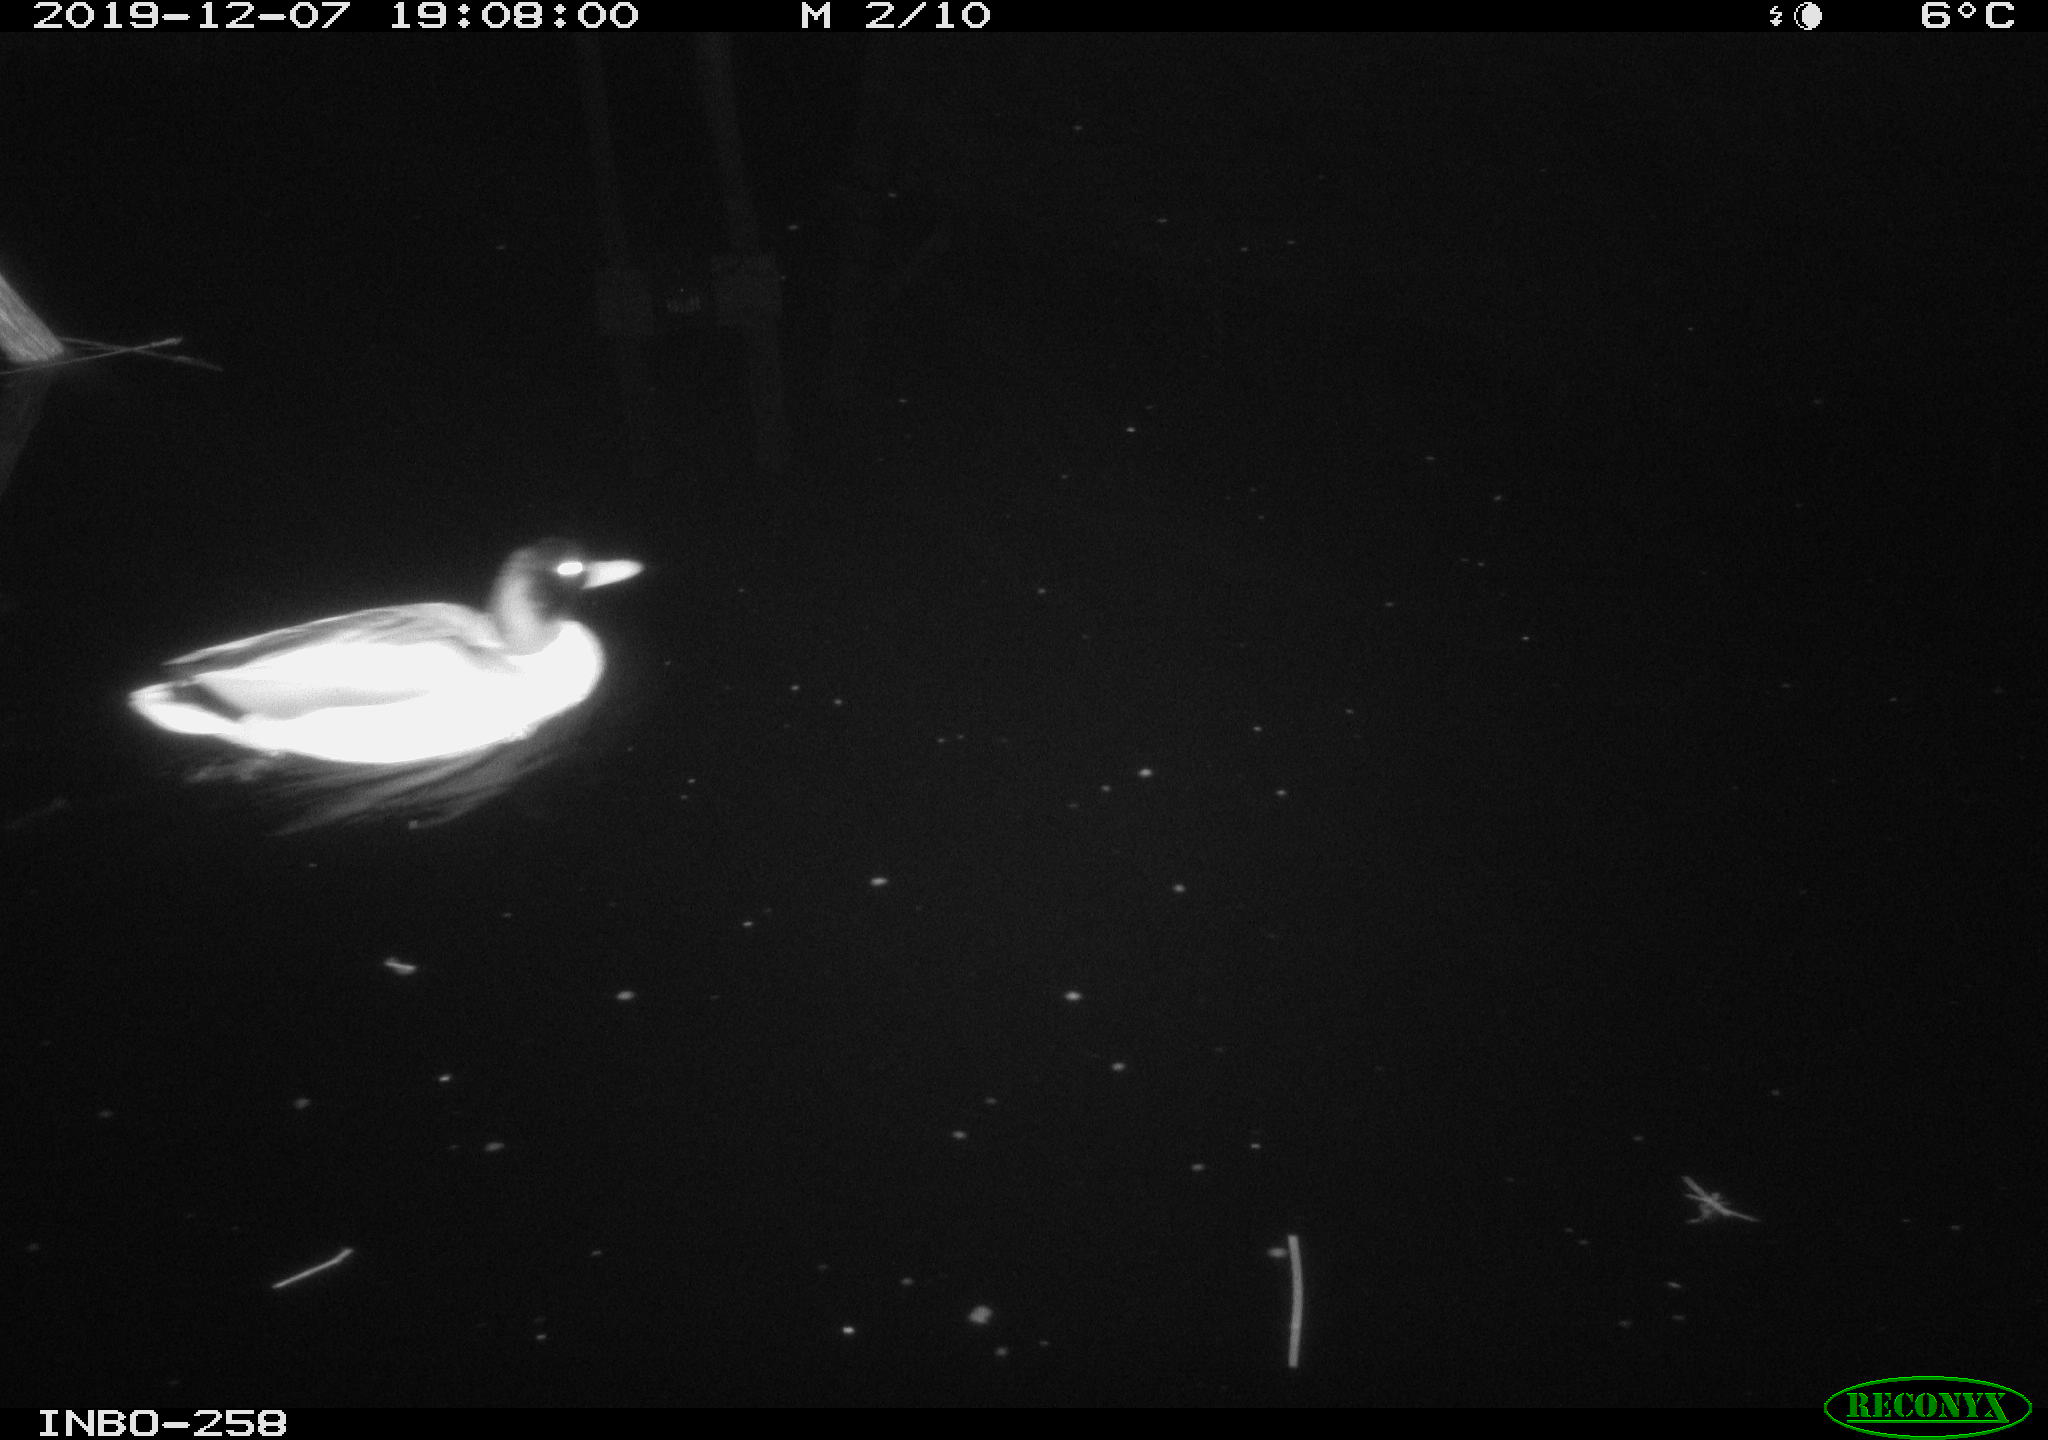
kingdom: Animalia
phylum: Chordata
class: Aves
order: Anseriformes
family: Anatidae
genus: Anas
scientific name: Anas platyrhynchos
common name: Mallard
